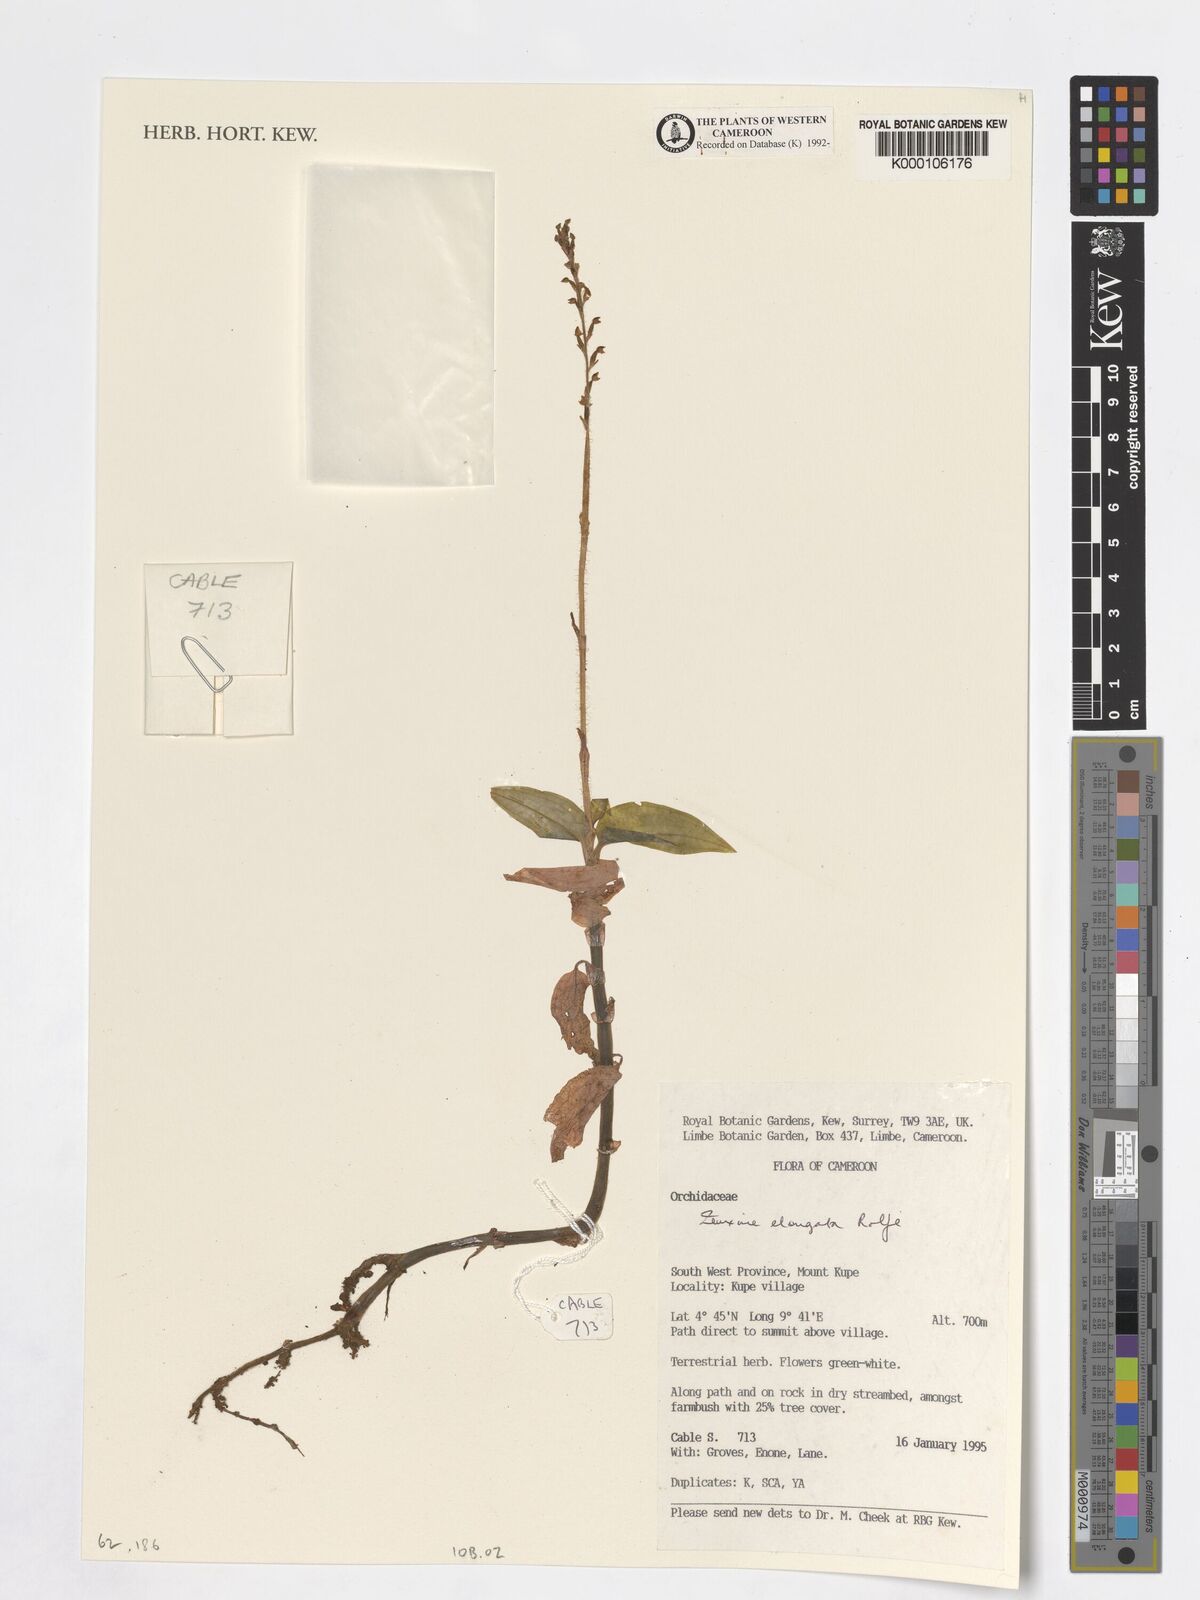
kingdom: Plantae
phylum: Tracheophyta
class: Liliopsida
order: Asparagales
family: Orchidaceae
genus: Zeuxine
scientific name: Zeuxine elongata
